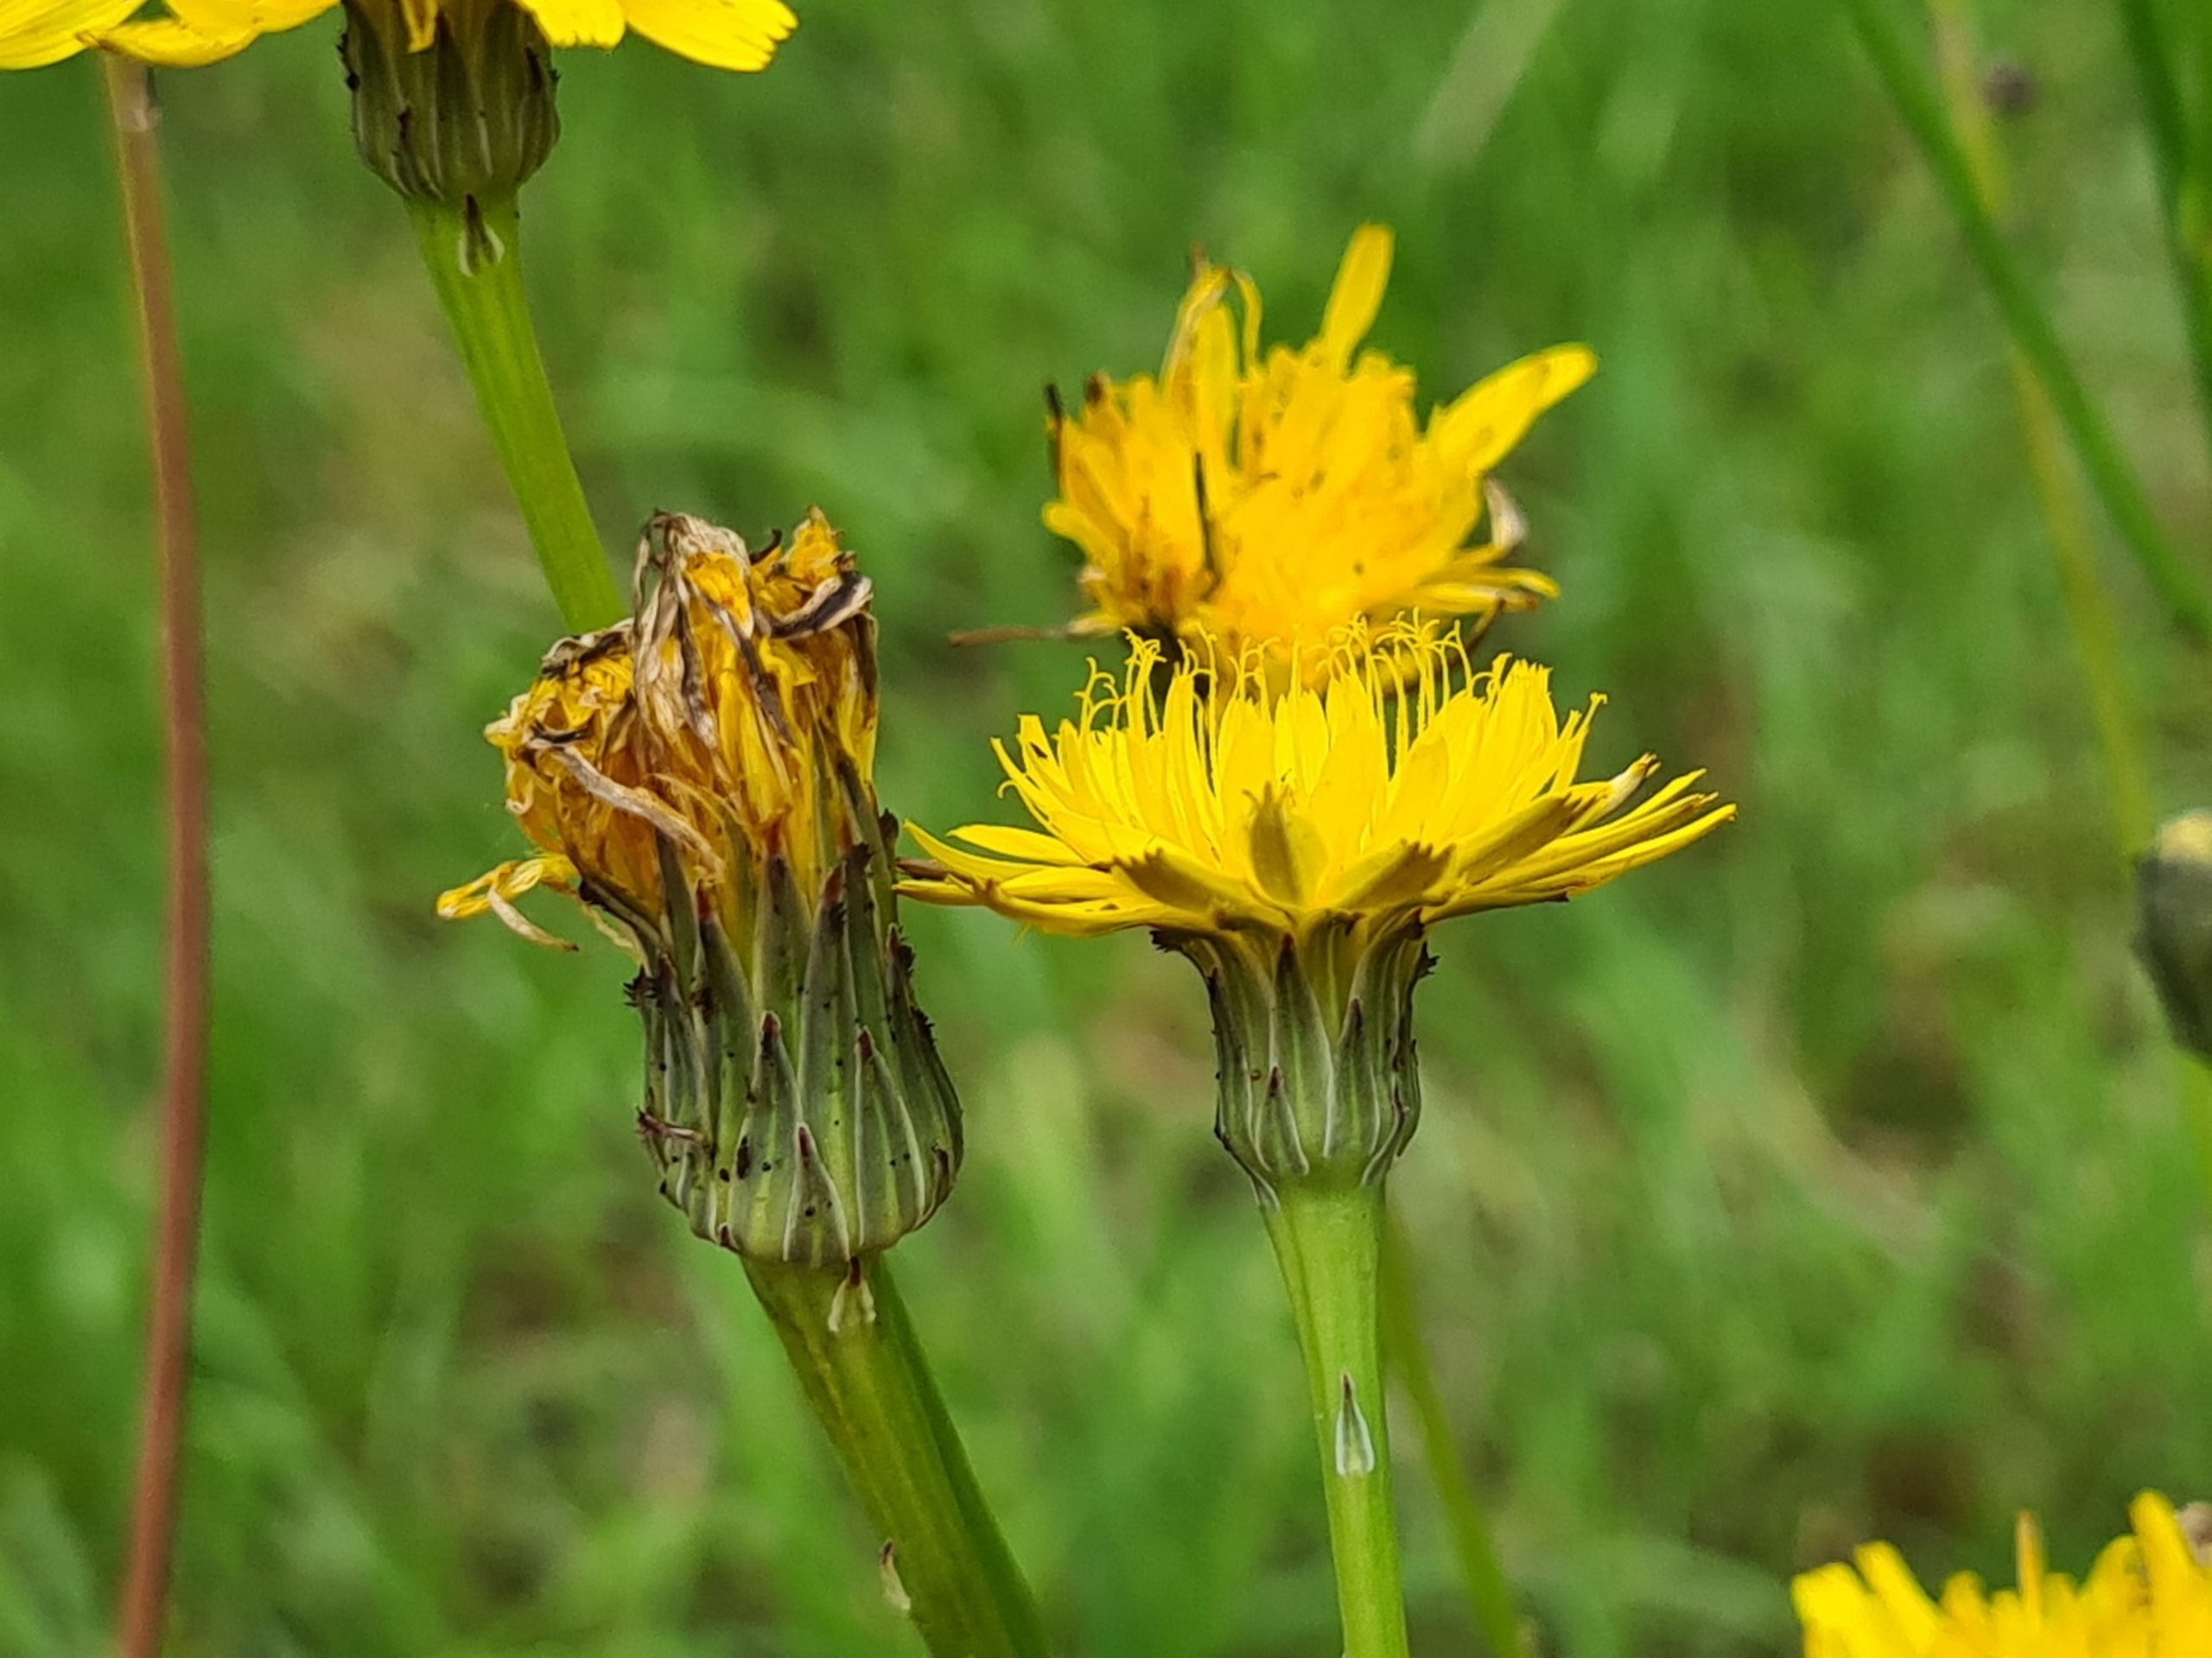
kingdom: Plantae
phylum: Tracheophyta
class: Magnoliopsida
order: Asterales
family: Asteraceae
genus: Hypochaeris
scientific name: Hypochaeris radicata
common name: Almindelig kongepen
